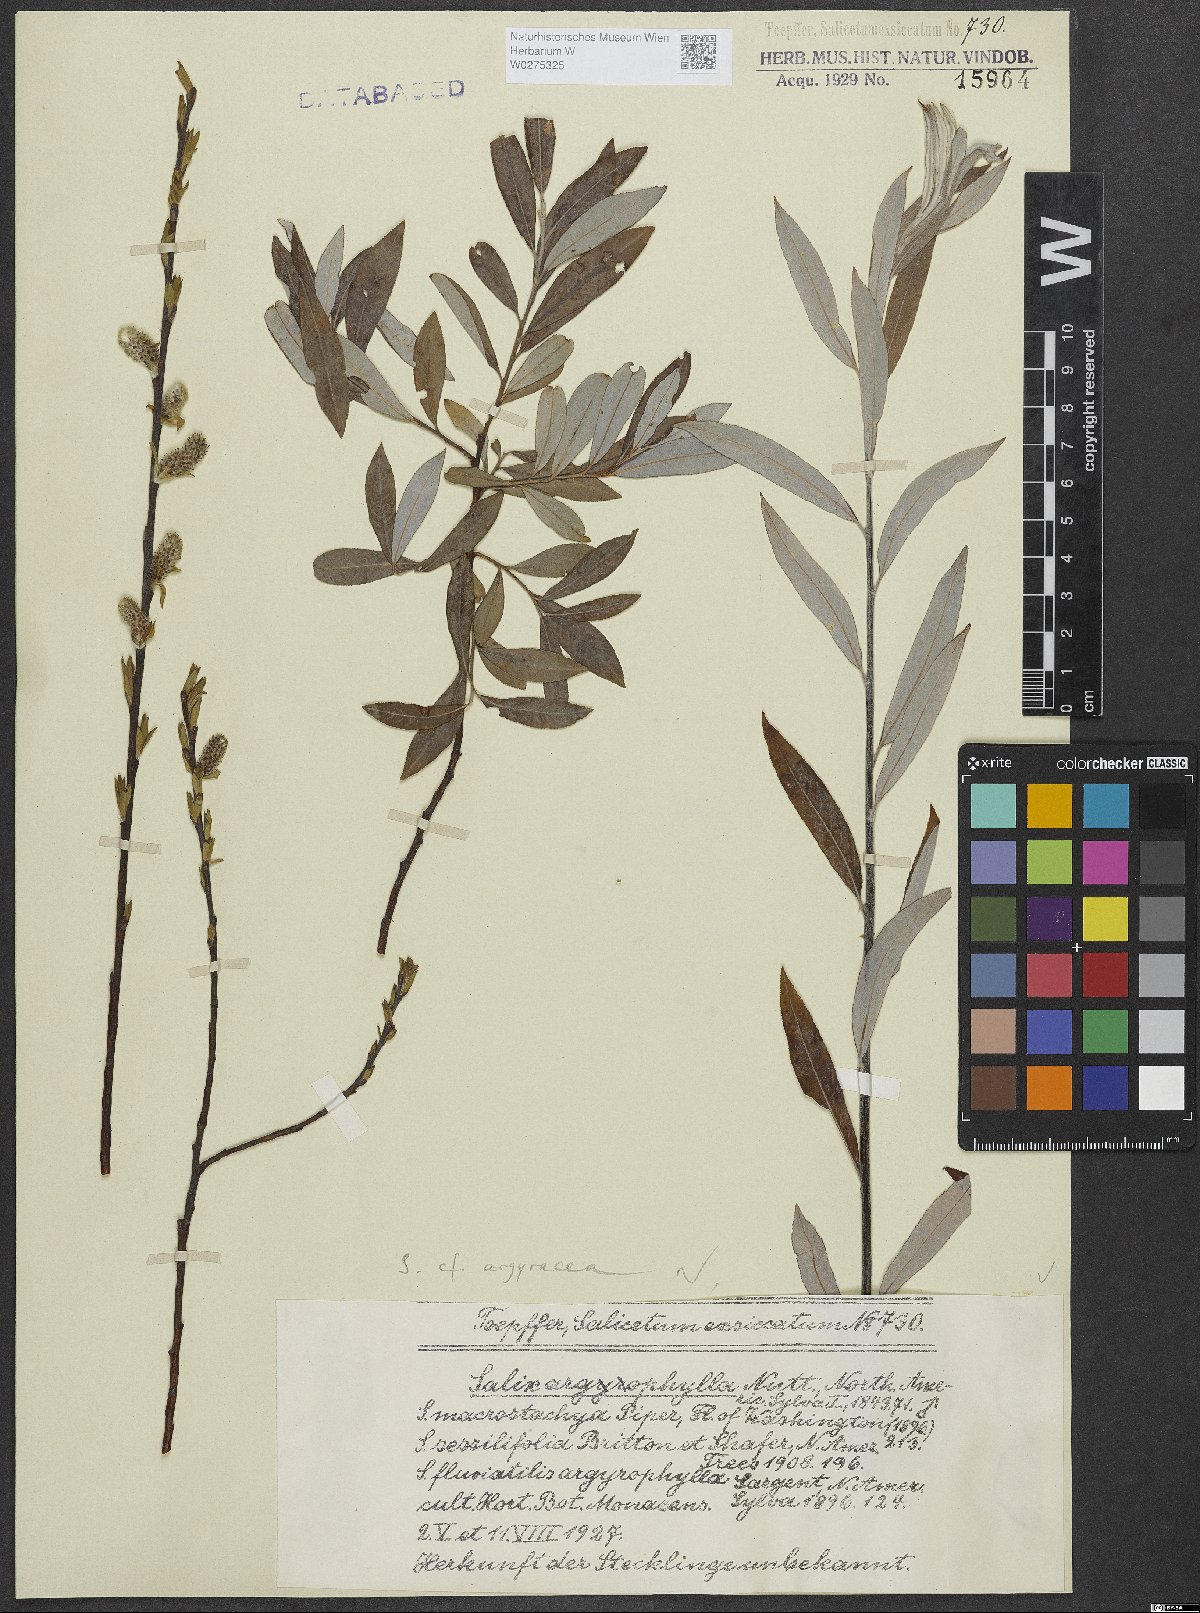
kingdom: Plantae
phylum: Tracheophyta
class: Magnoliopsida
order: Malpighiales
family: Salicaceae
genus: Salix
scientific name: Salix argyracea
